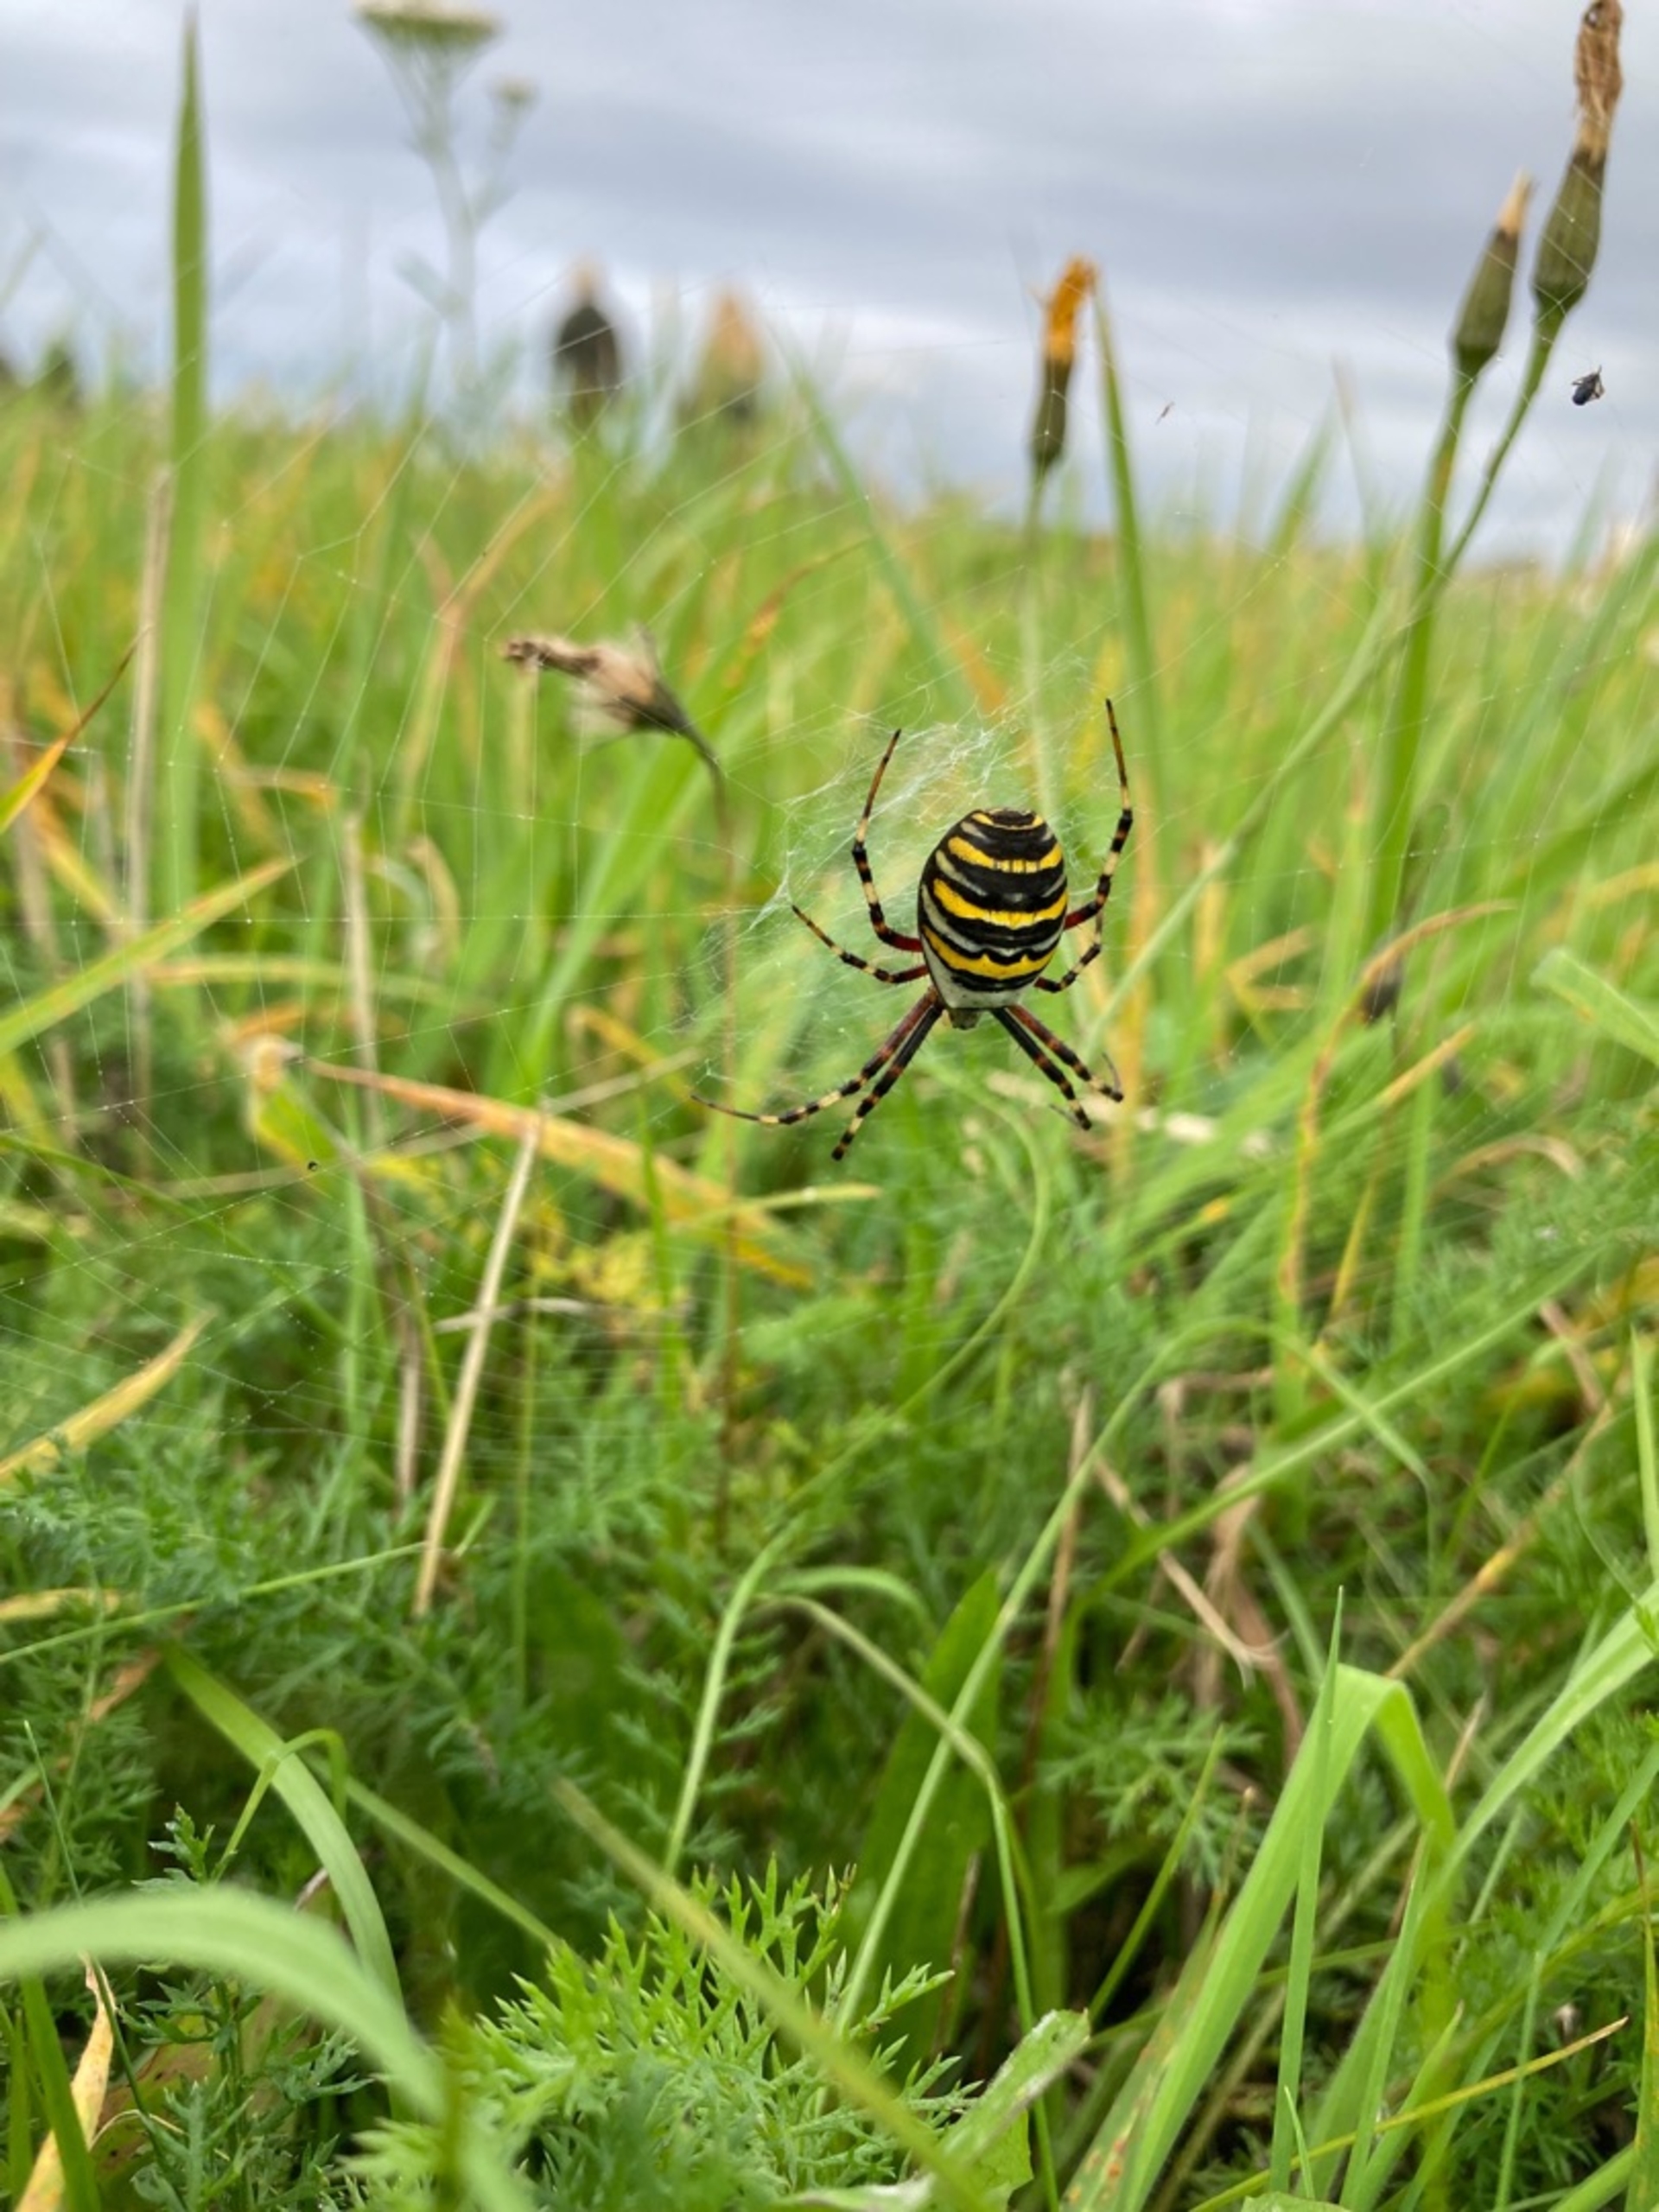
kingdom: Animalia
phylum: Arthropoda
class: Arachnida
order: Araneae
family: Araneidae
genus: Argiope
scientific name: Argiope bruennichi
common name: Hvepseedderkop
